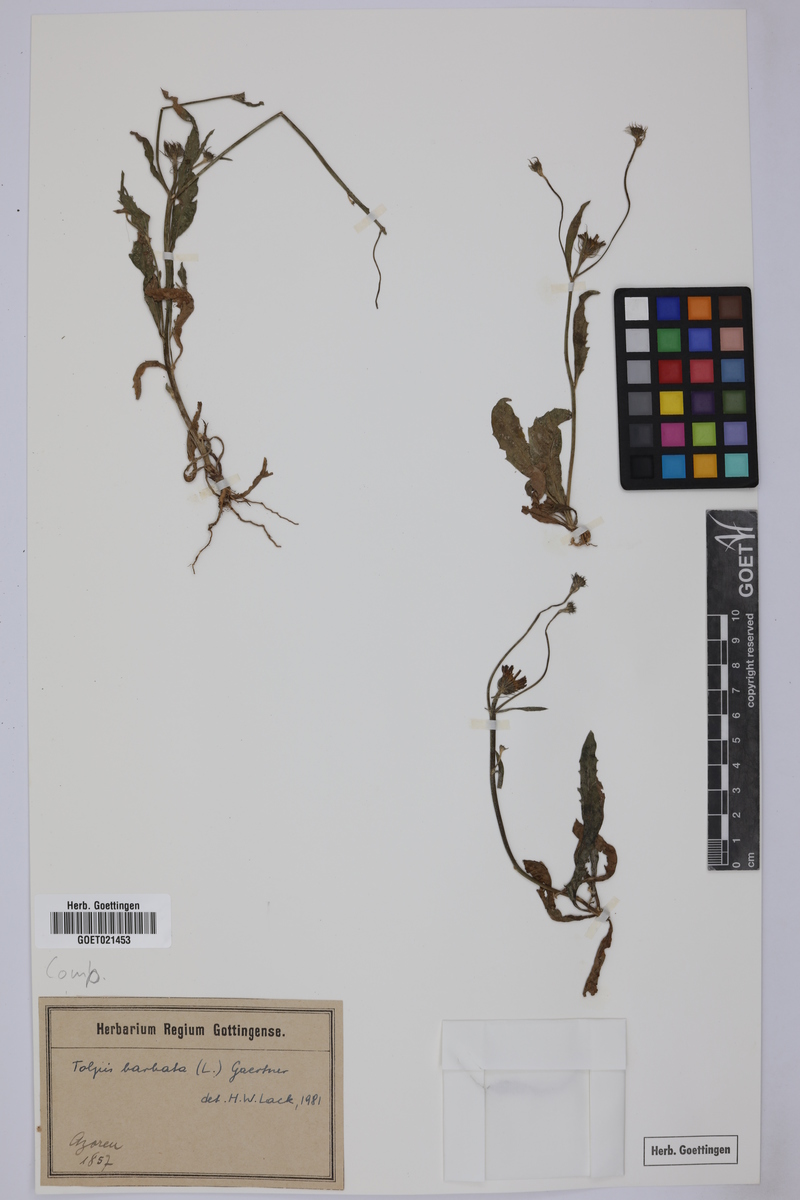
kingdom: Plantae
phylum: Tracheophyta
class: Magnoliopsida
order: Asterales
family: Asteraceae
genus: Tolpis
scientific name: Tolpis barbata
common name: Yellow hawkweed
